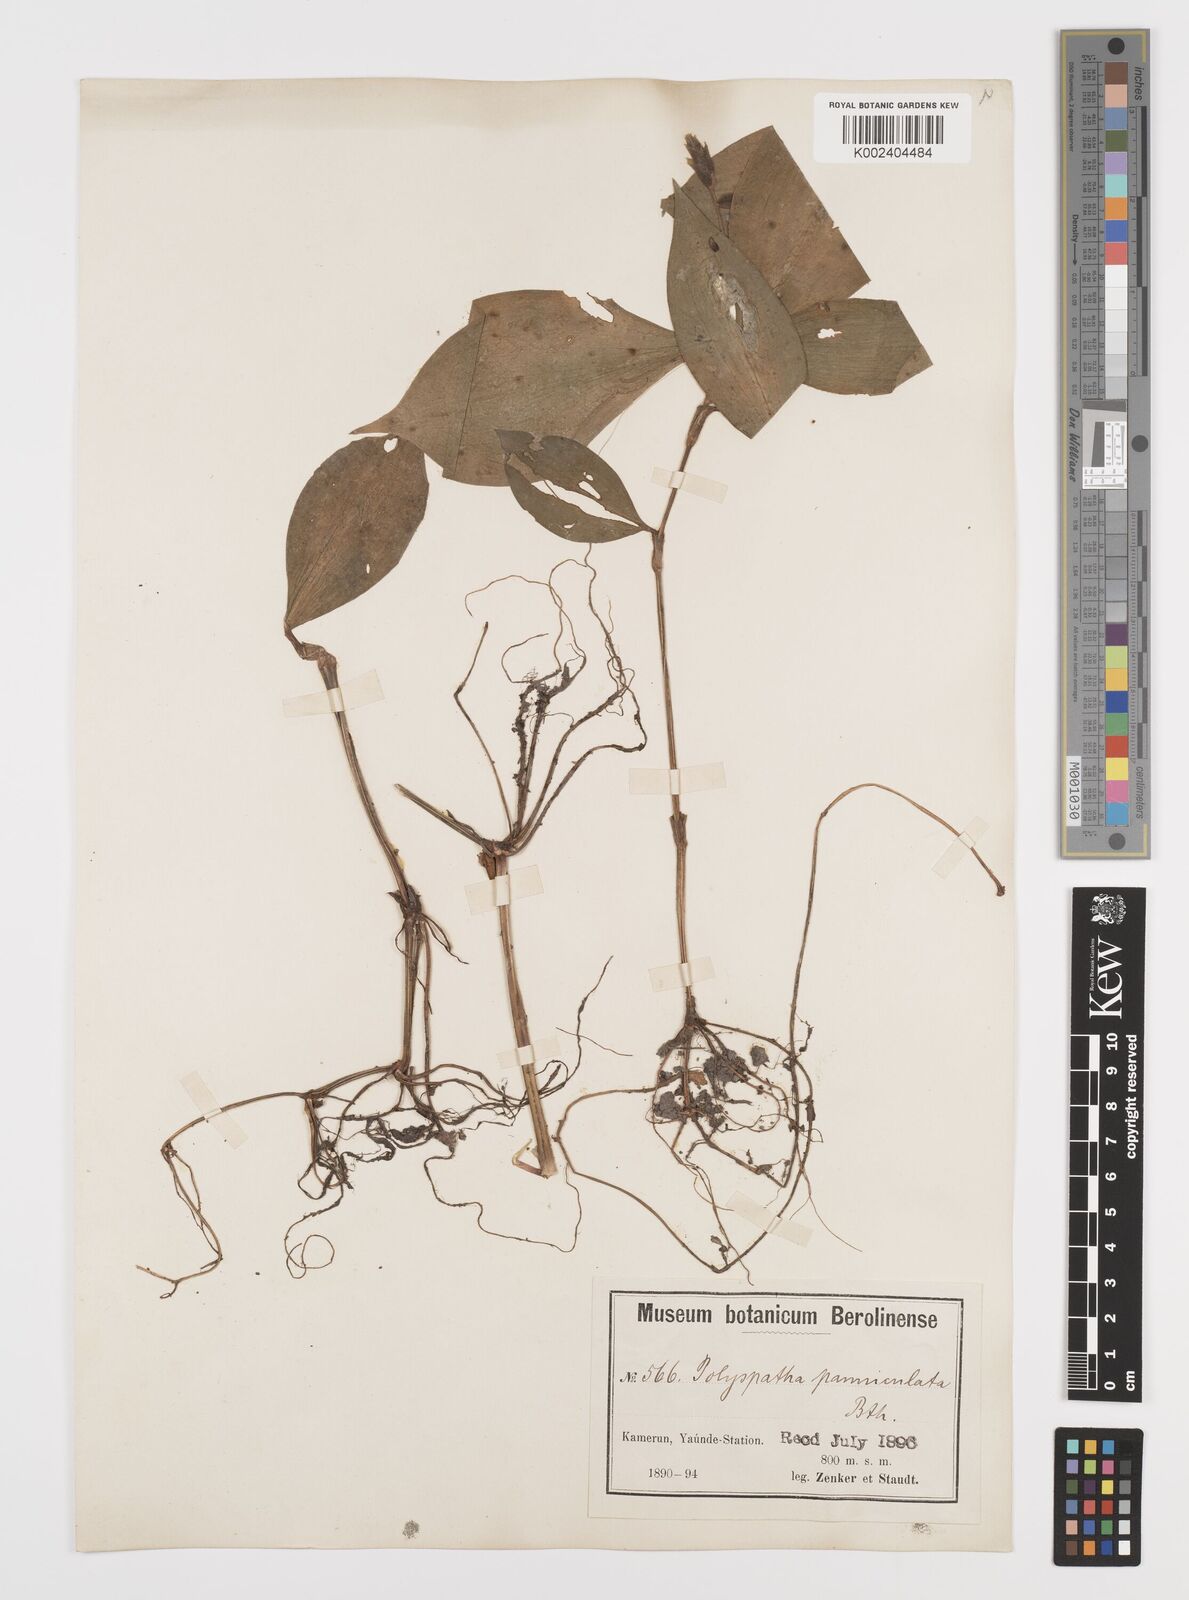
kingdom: Plantae
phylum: Tracheophyta
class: Liliopsida
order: Commelinales
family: Commelinaceae
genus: Polyspatha
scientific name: Polyspatha paniculata
